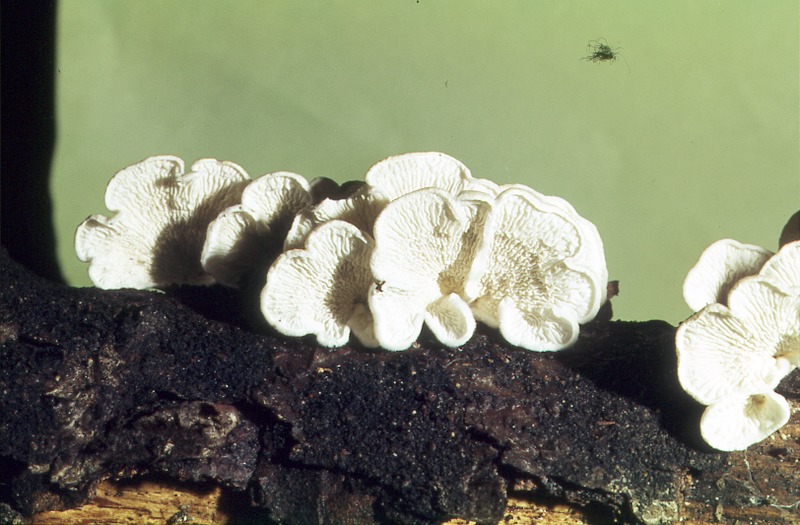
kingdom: Plantae
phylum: Tracheophyta
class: Magnoliopsida
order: Fagales
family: Fagaceae
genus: Fagus
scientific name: Fagus sylvatica
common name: Beech
